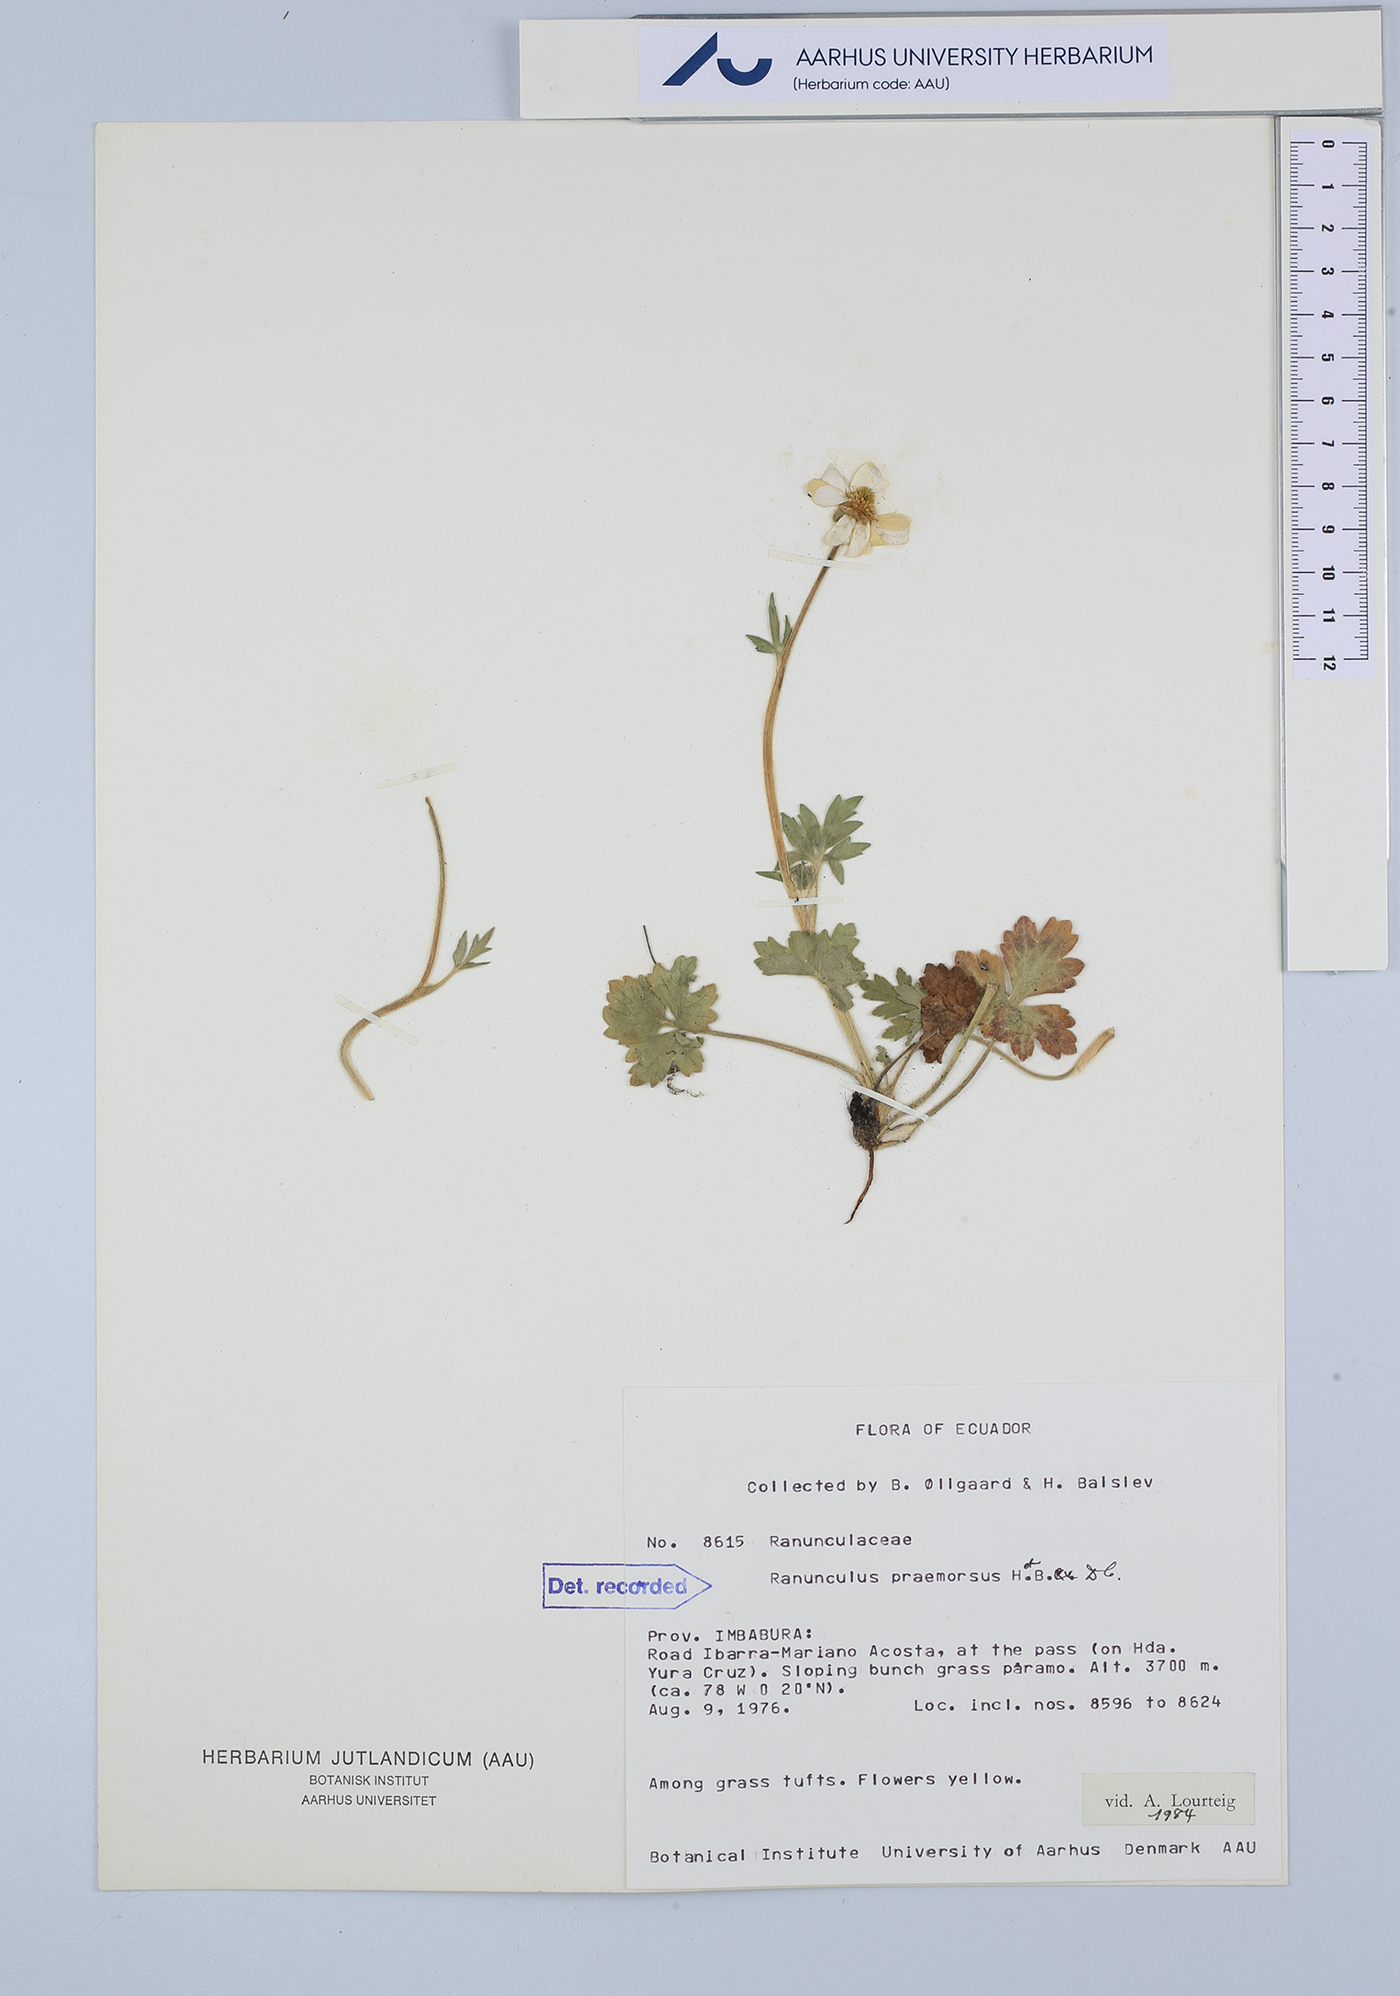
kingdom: Plantae
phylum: Tracheophyta
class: Magnoliopsida
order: Ranunculales
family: Ranunculaceae
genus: Ranunculus
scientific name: Ranunculus praemorsus
